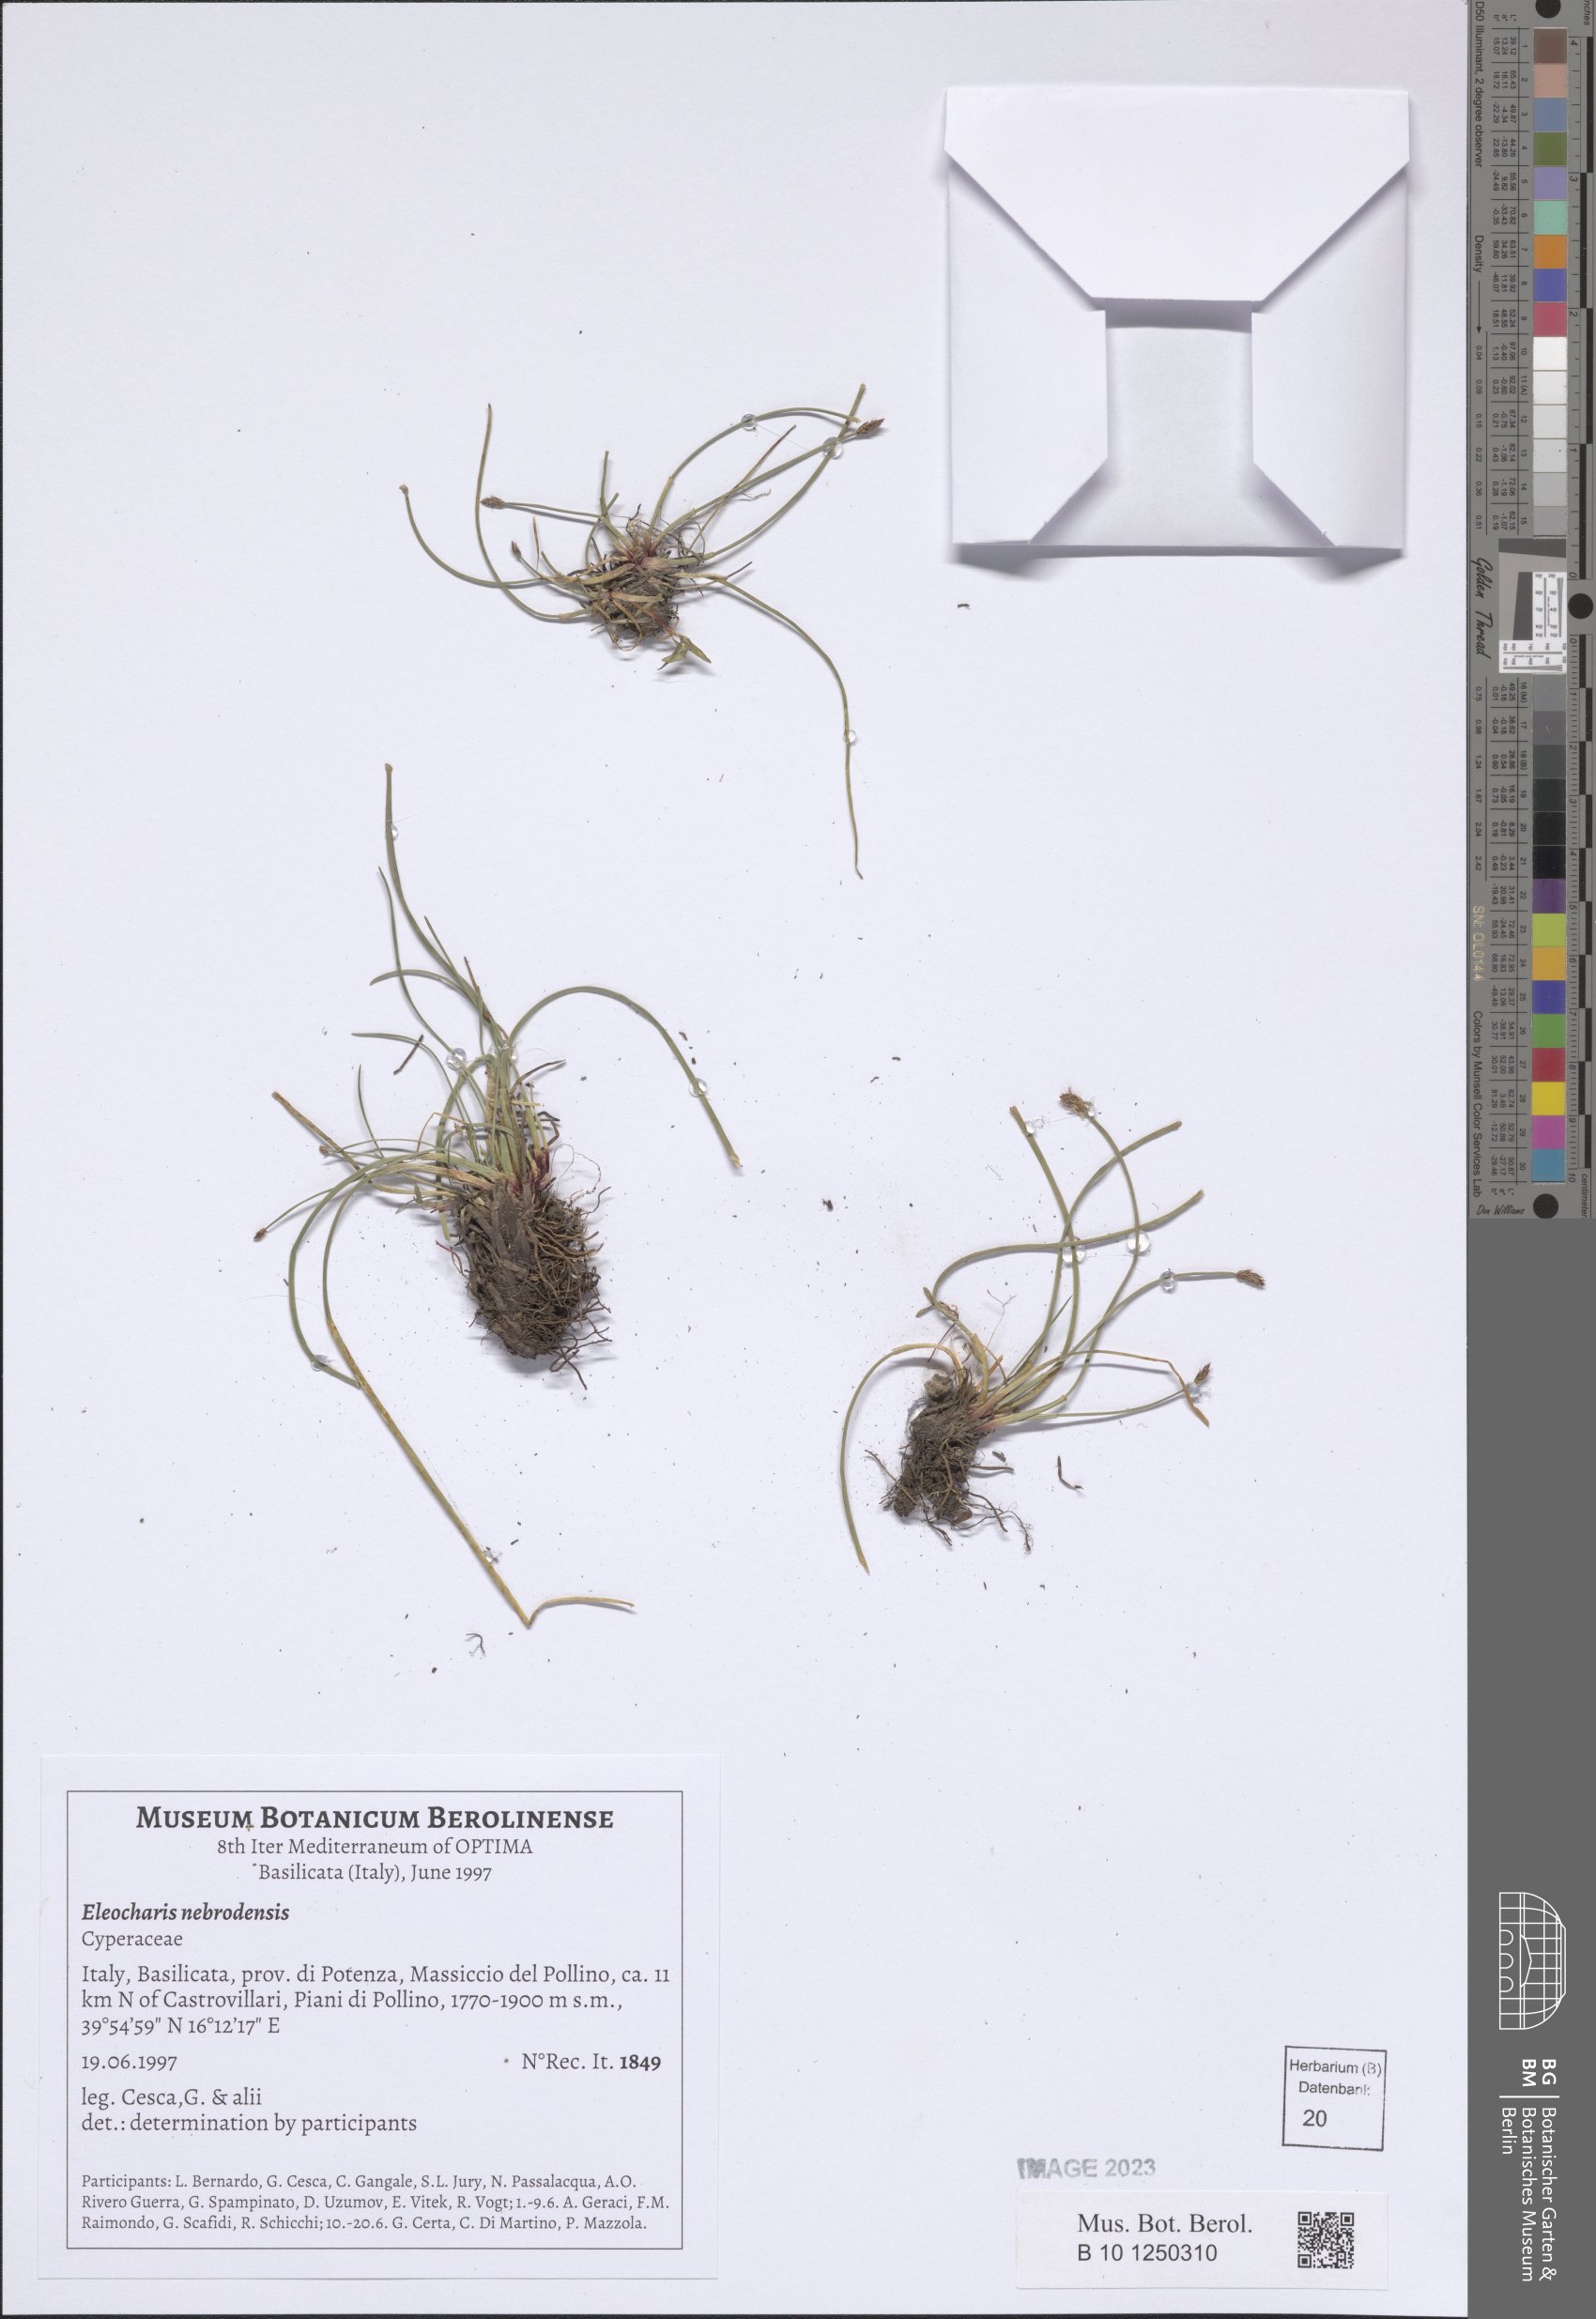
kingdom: Plantae
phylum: Tracheophyta
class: Liliopsida
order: Poales
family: Cyperaceae
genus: Eleocharis
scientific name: Eleocharis palustris
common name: Common spike-rush
